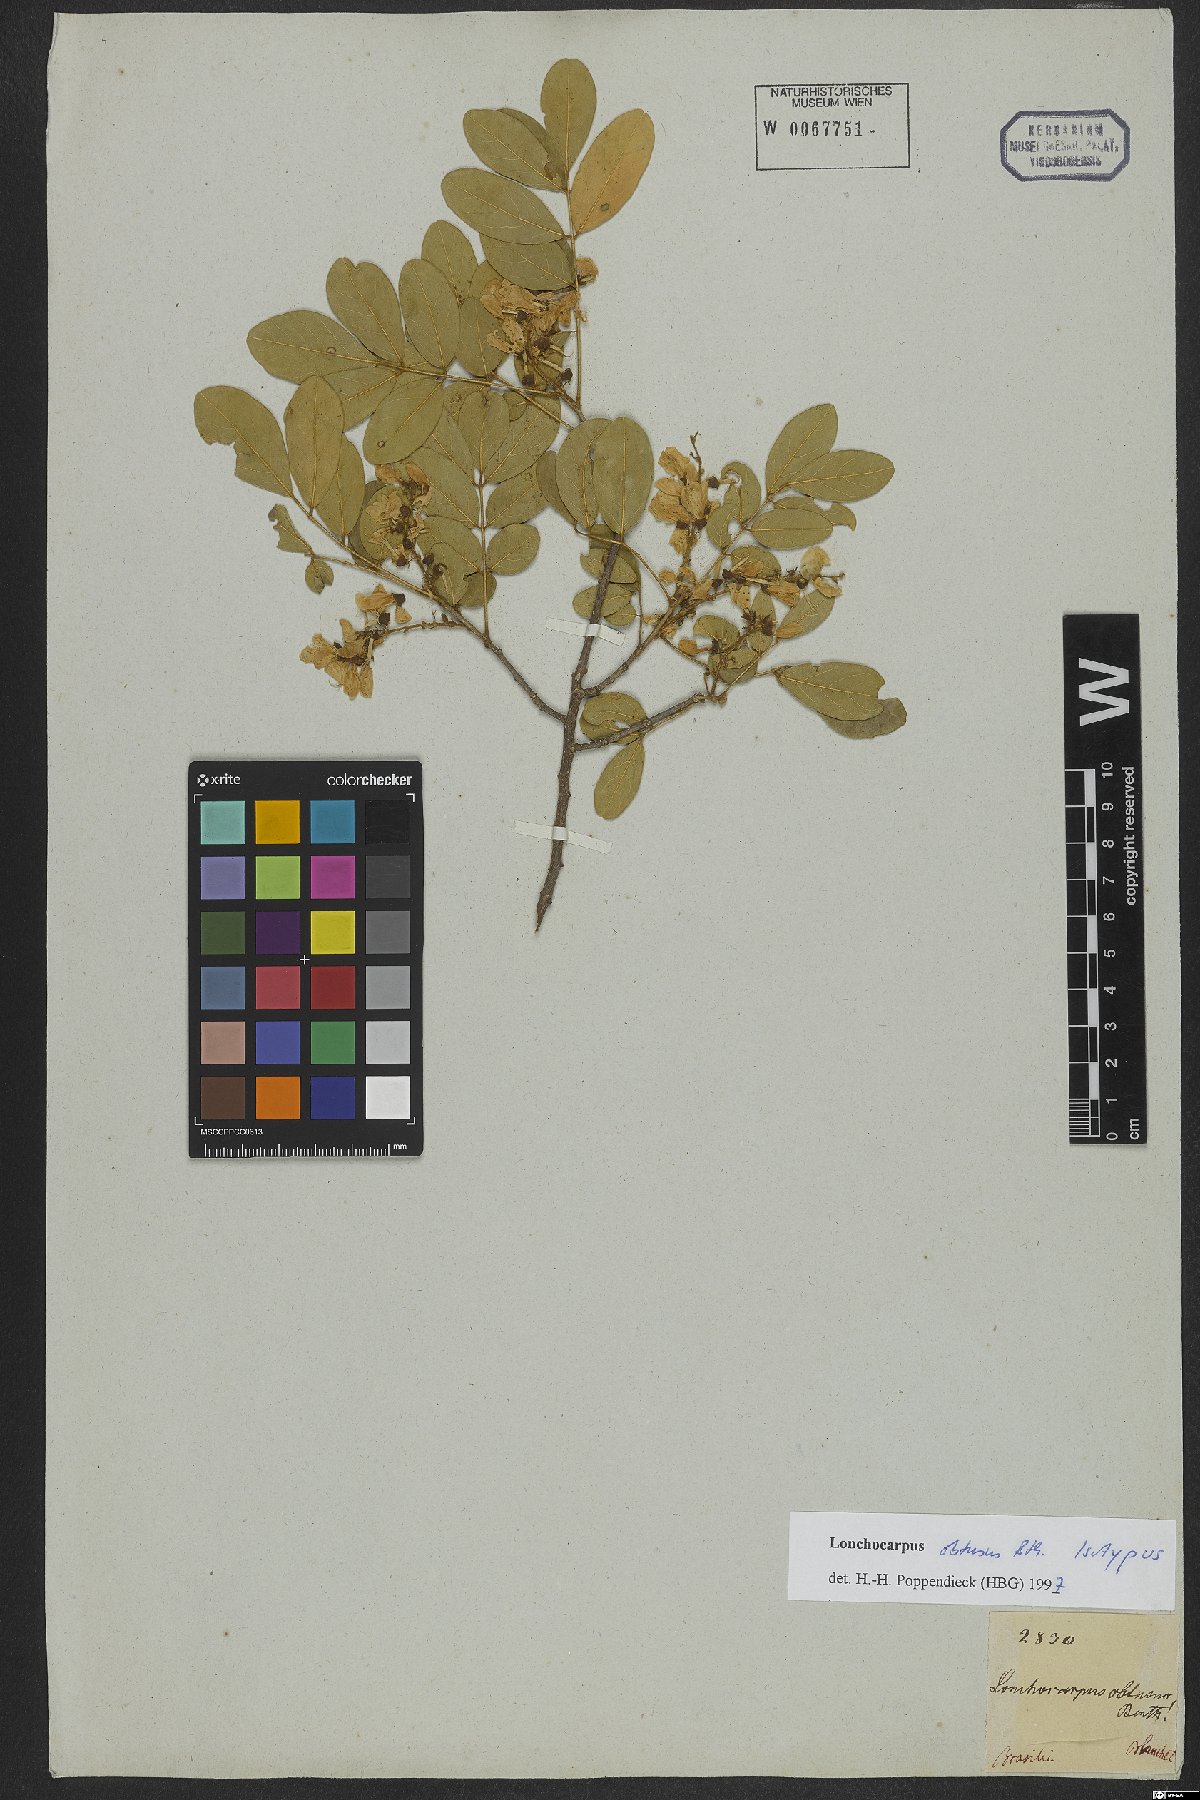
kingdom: Plantae
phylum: Tracheophyta
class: Magnoliopsida
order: Fabales
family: Fabaceae
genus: Muellera
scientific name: Muellera obtusa
